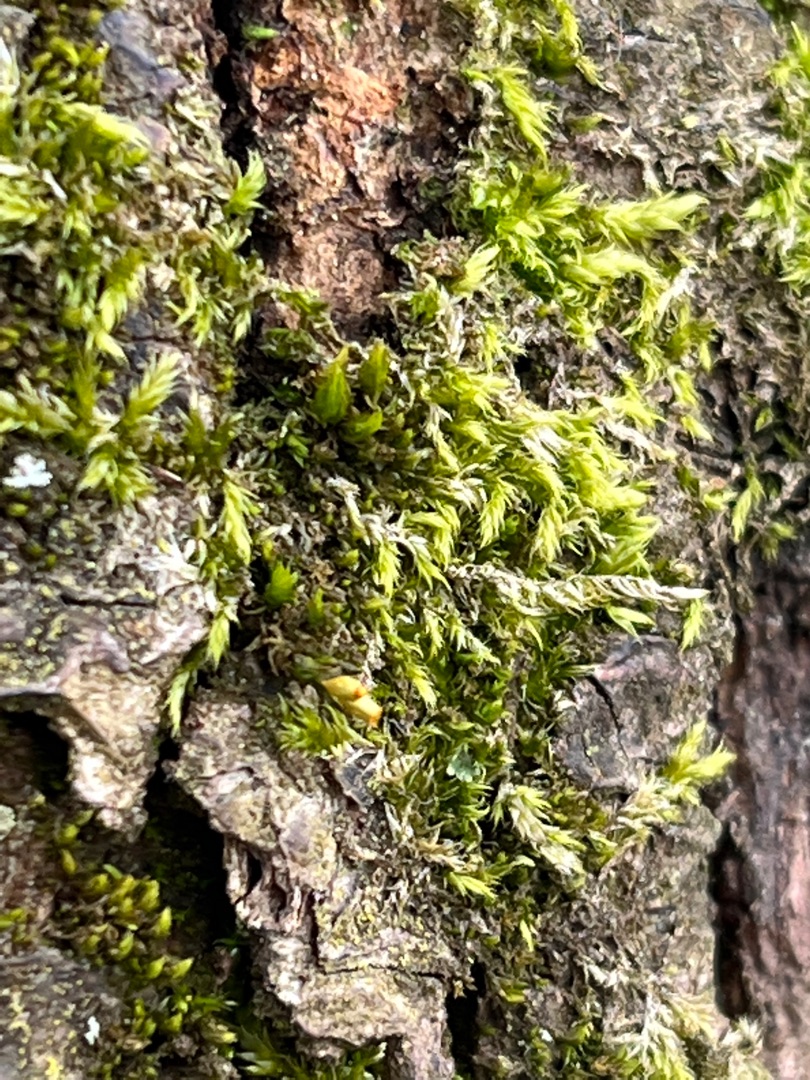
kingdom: Plantae
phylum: Bryophyta
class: Bryopsida
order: Hypnales
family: Hypnaceae
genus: Hypnum
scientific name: Hypnum
